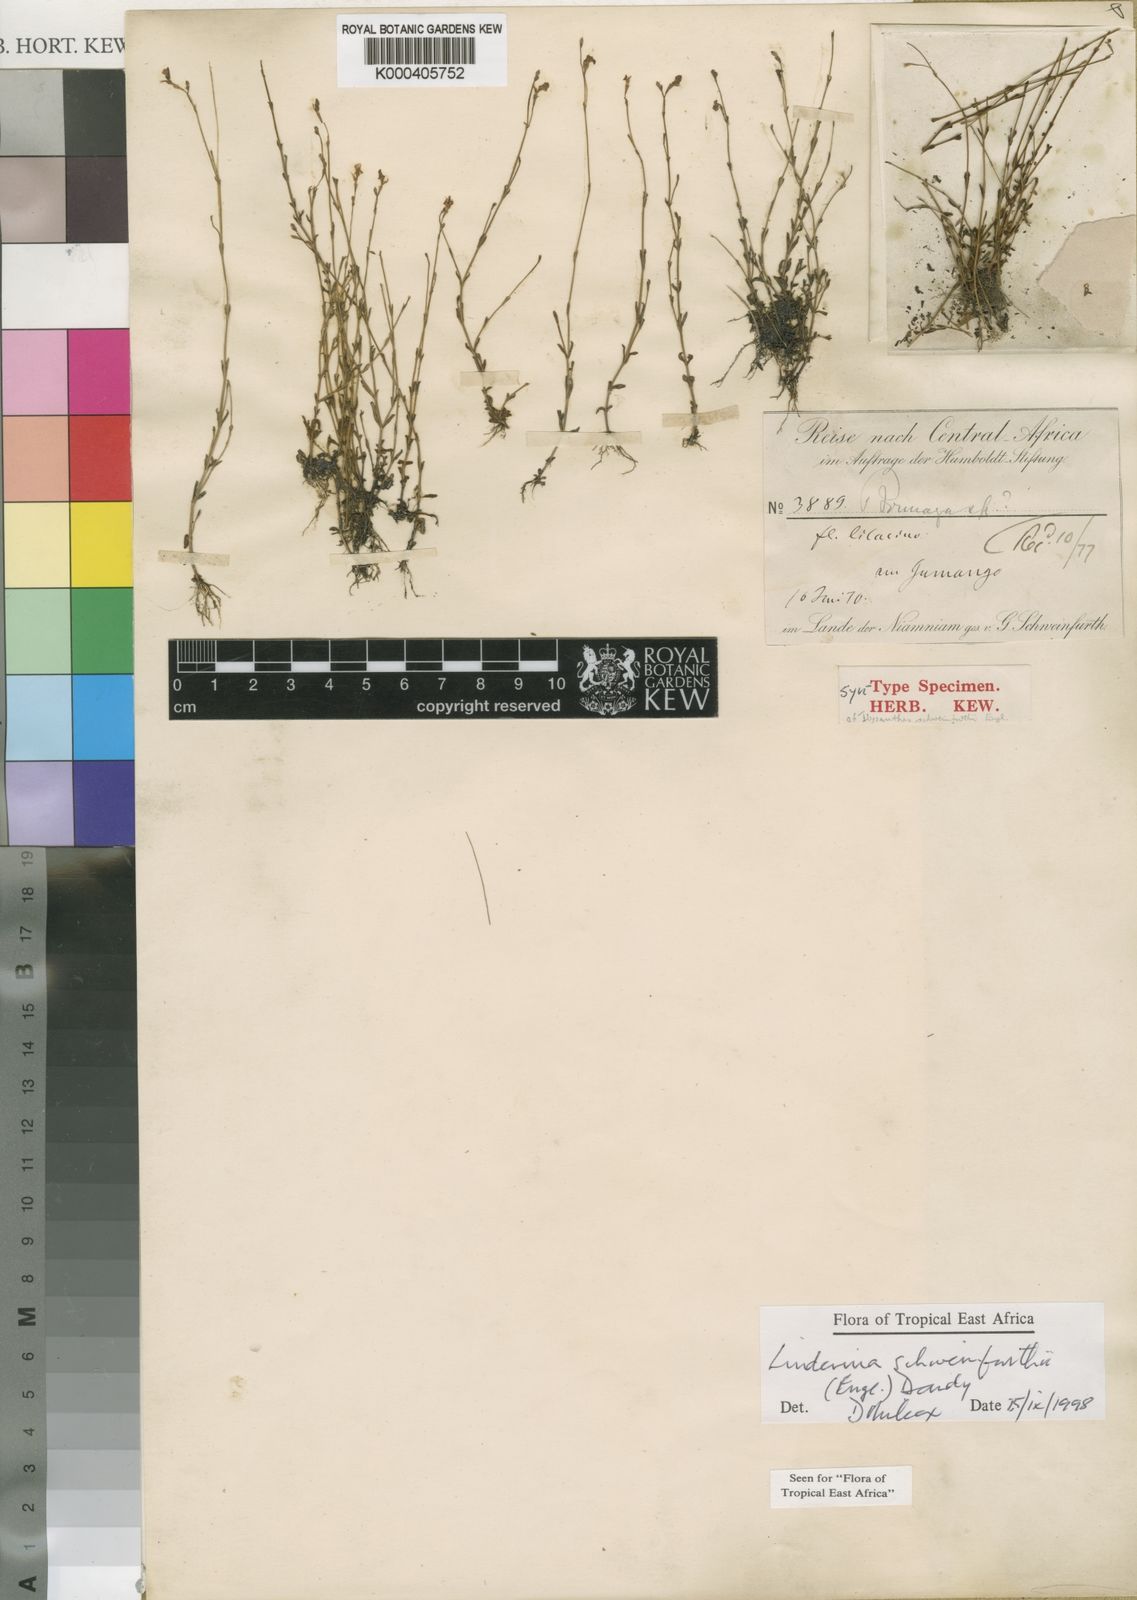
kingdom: Plantae
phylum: Tracheophyta
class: Magnoliopsida
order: Lamiales
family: Linderniaceae
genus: Linderniella
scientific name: Linderniella trichotoma
